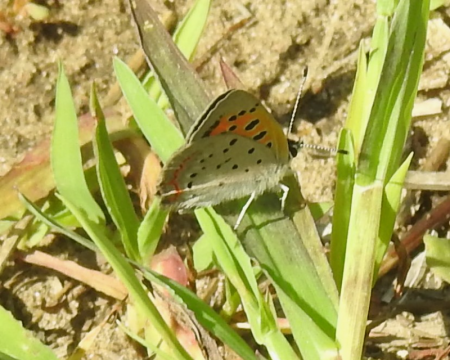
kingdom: Animalia
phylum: Arthropoda
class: Insecta
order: Lepidoptera
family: Lycaenidae
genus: Lycaena
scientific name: Lycaena phlaeas
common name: American Copper
